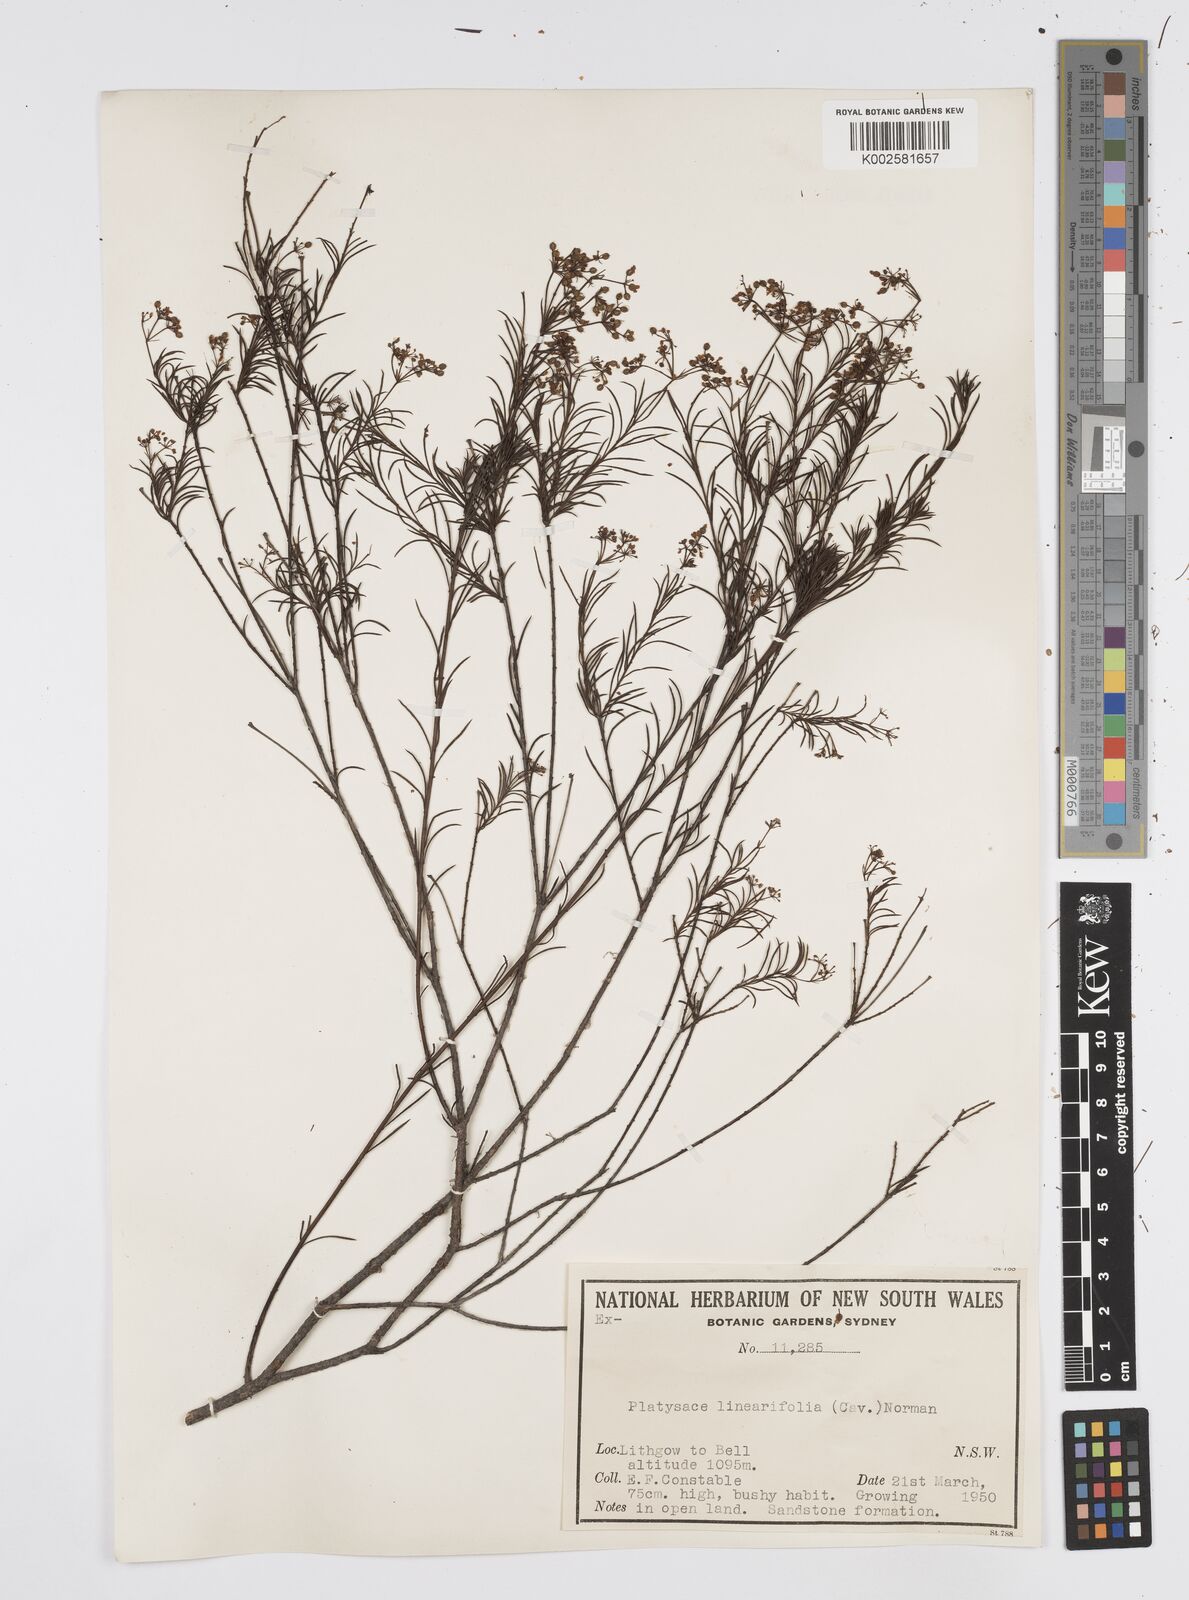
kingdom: Plantae
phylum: Tracheophyta
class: Magnoliopsida
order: Apiales
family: Apiaceae
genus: Platysace
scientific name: Platysace linearifolia
